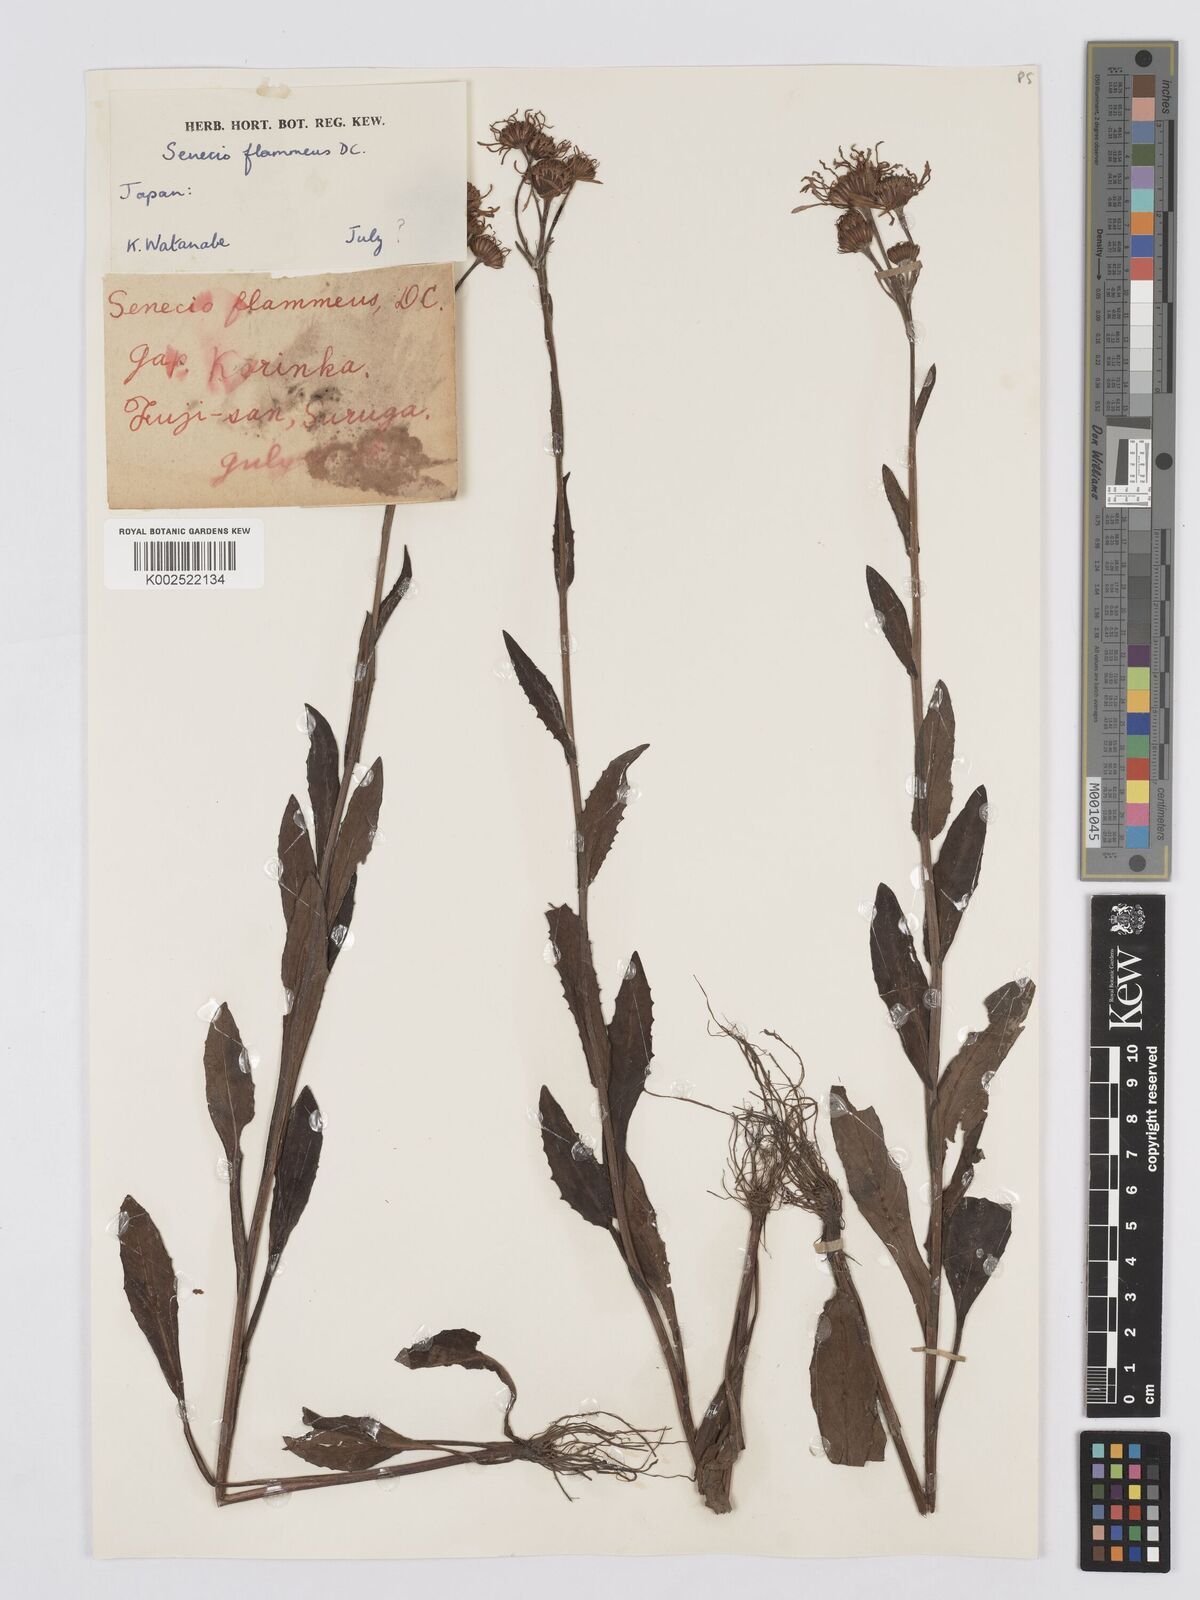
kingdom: Plantae
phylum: Tracheophyta
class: Magnoliopsida
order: Asterales
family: Asteraceae
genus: Tephroseris
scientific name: Tephroseris flammea
